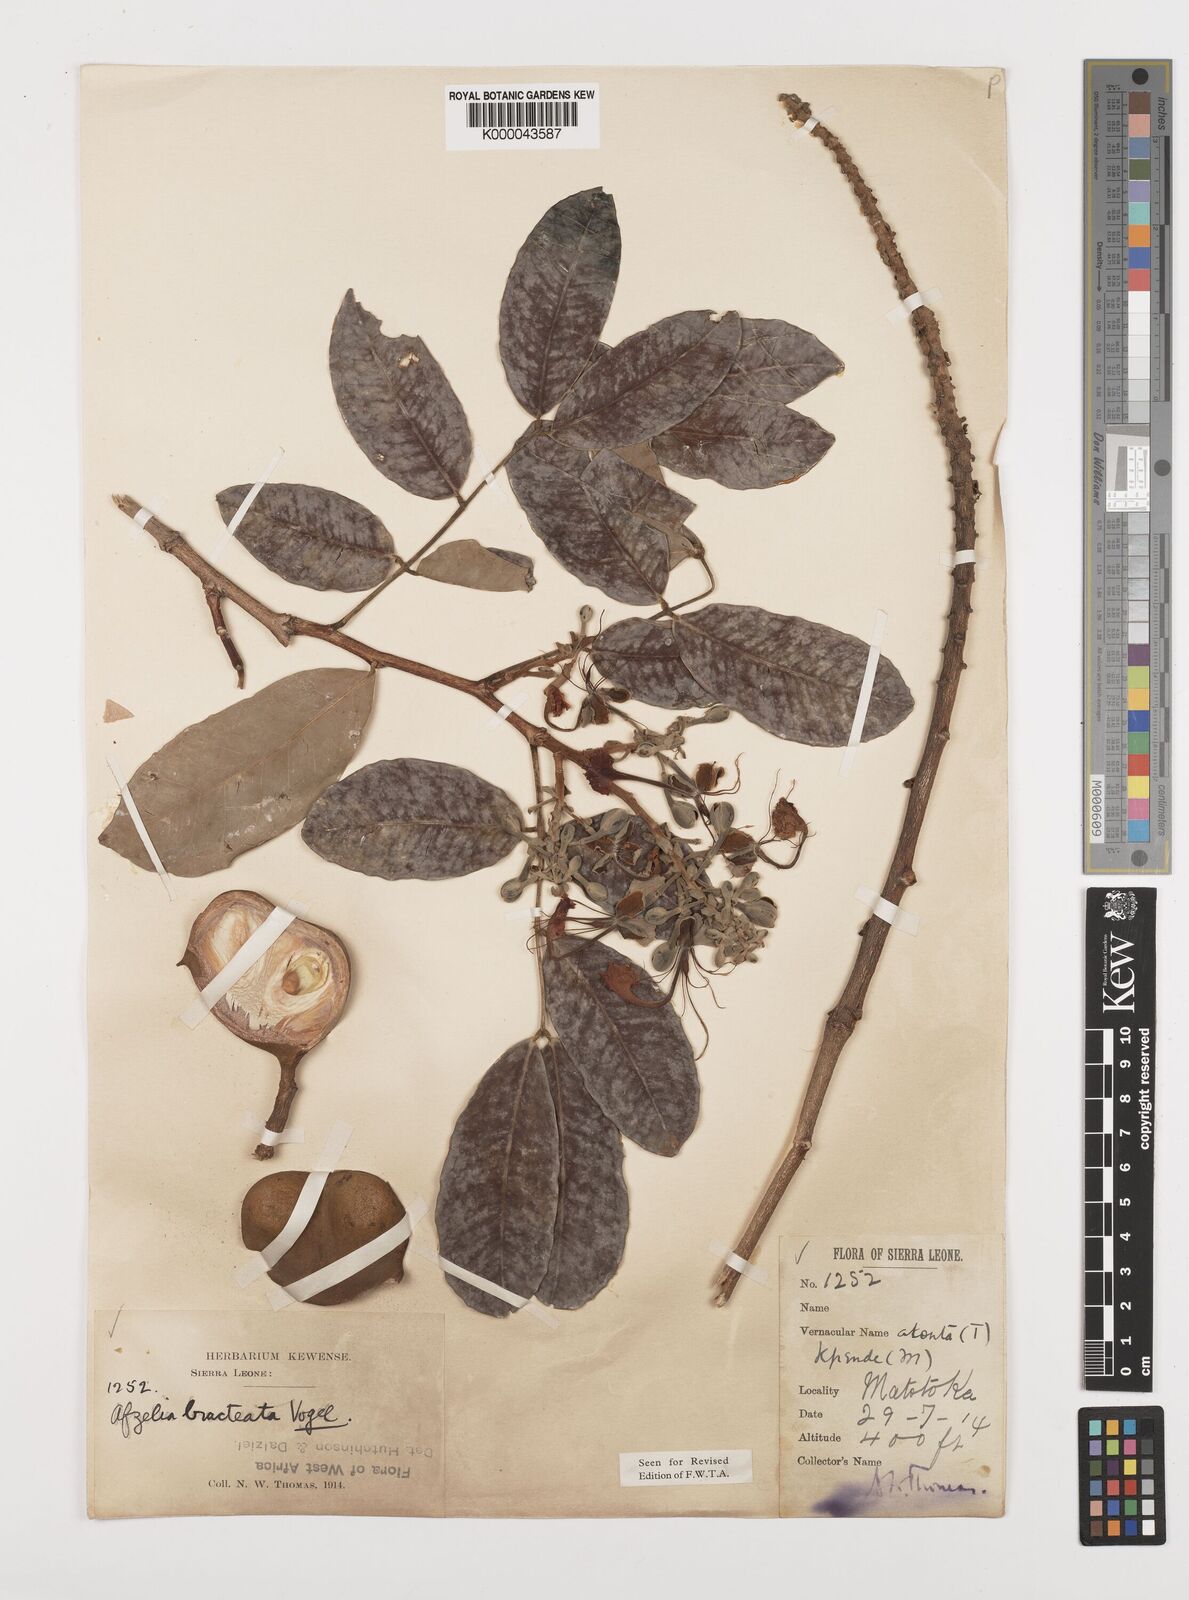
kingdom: Plantae
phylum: Tracheophyta
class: Magnoliopsida
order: Fabales
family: Fabaceae
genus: Afzelia
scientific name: Afzelia
